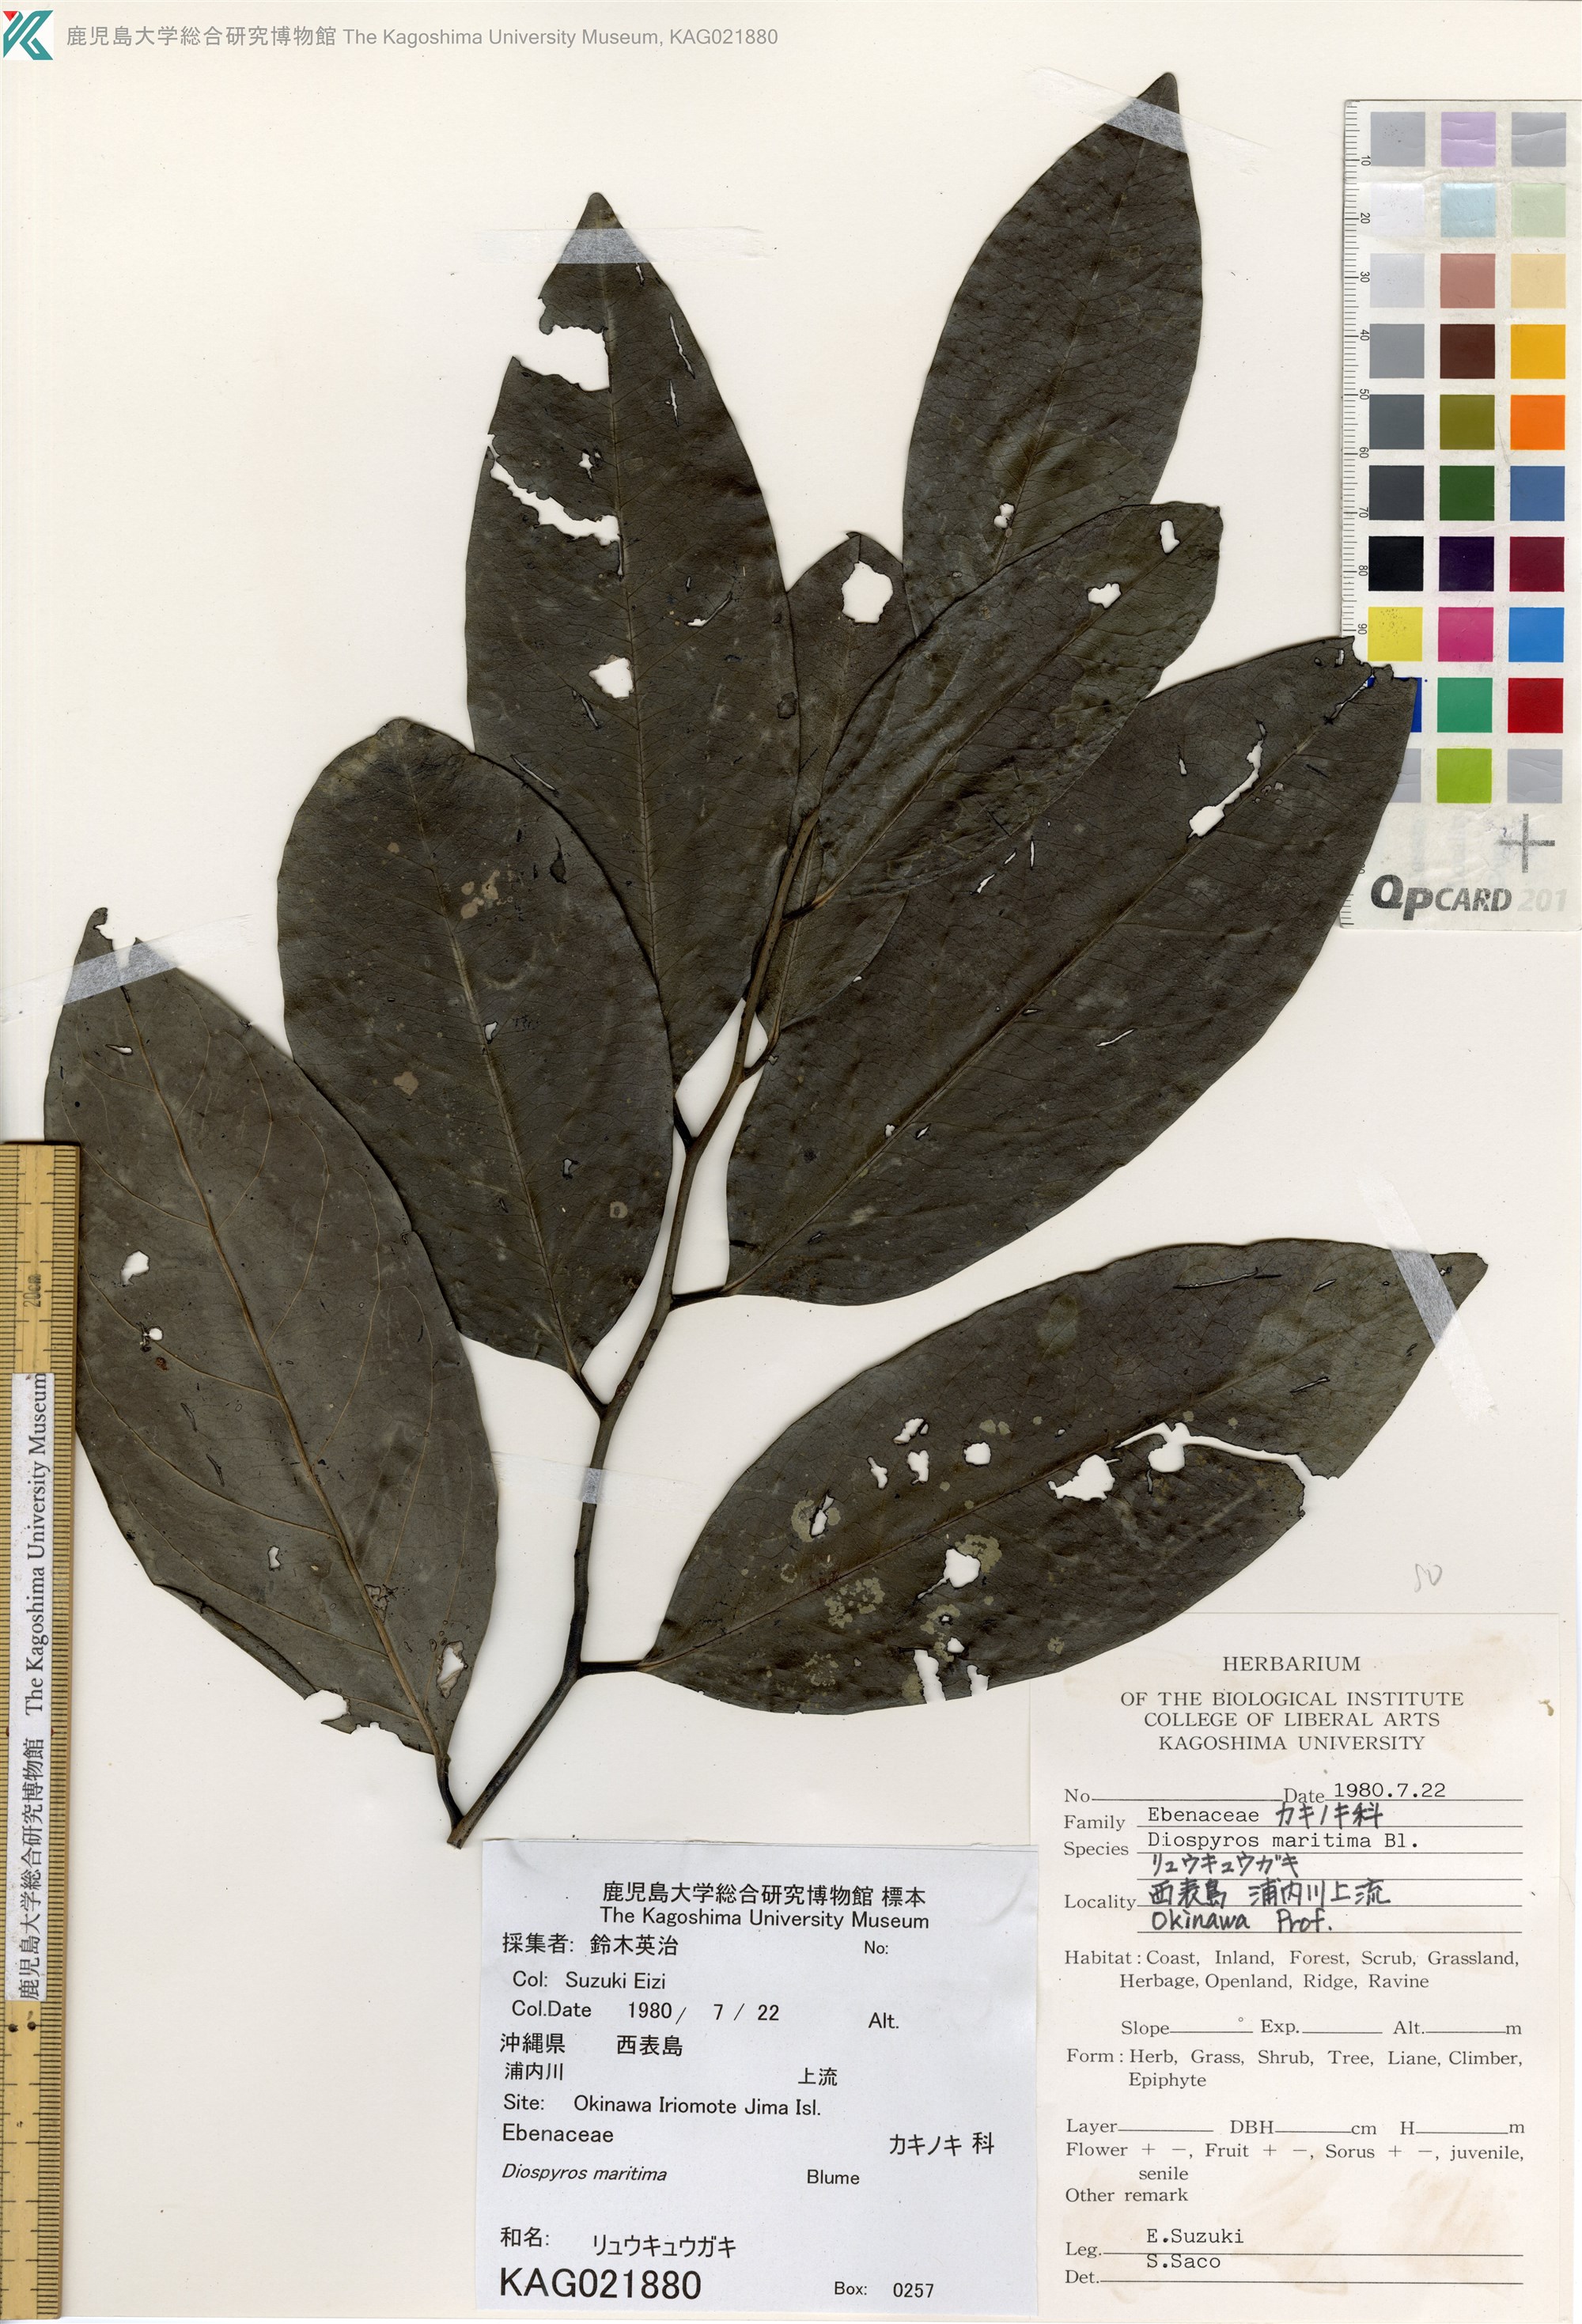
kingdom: Plantae
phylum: Tracheophyta
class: Magnoliopsida
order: Ericales
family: Ebenaceae
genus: Diospyros
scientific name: Diospyros maritima
